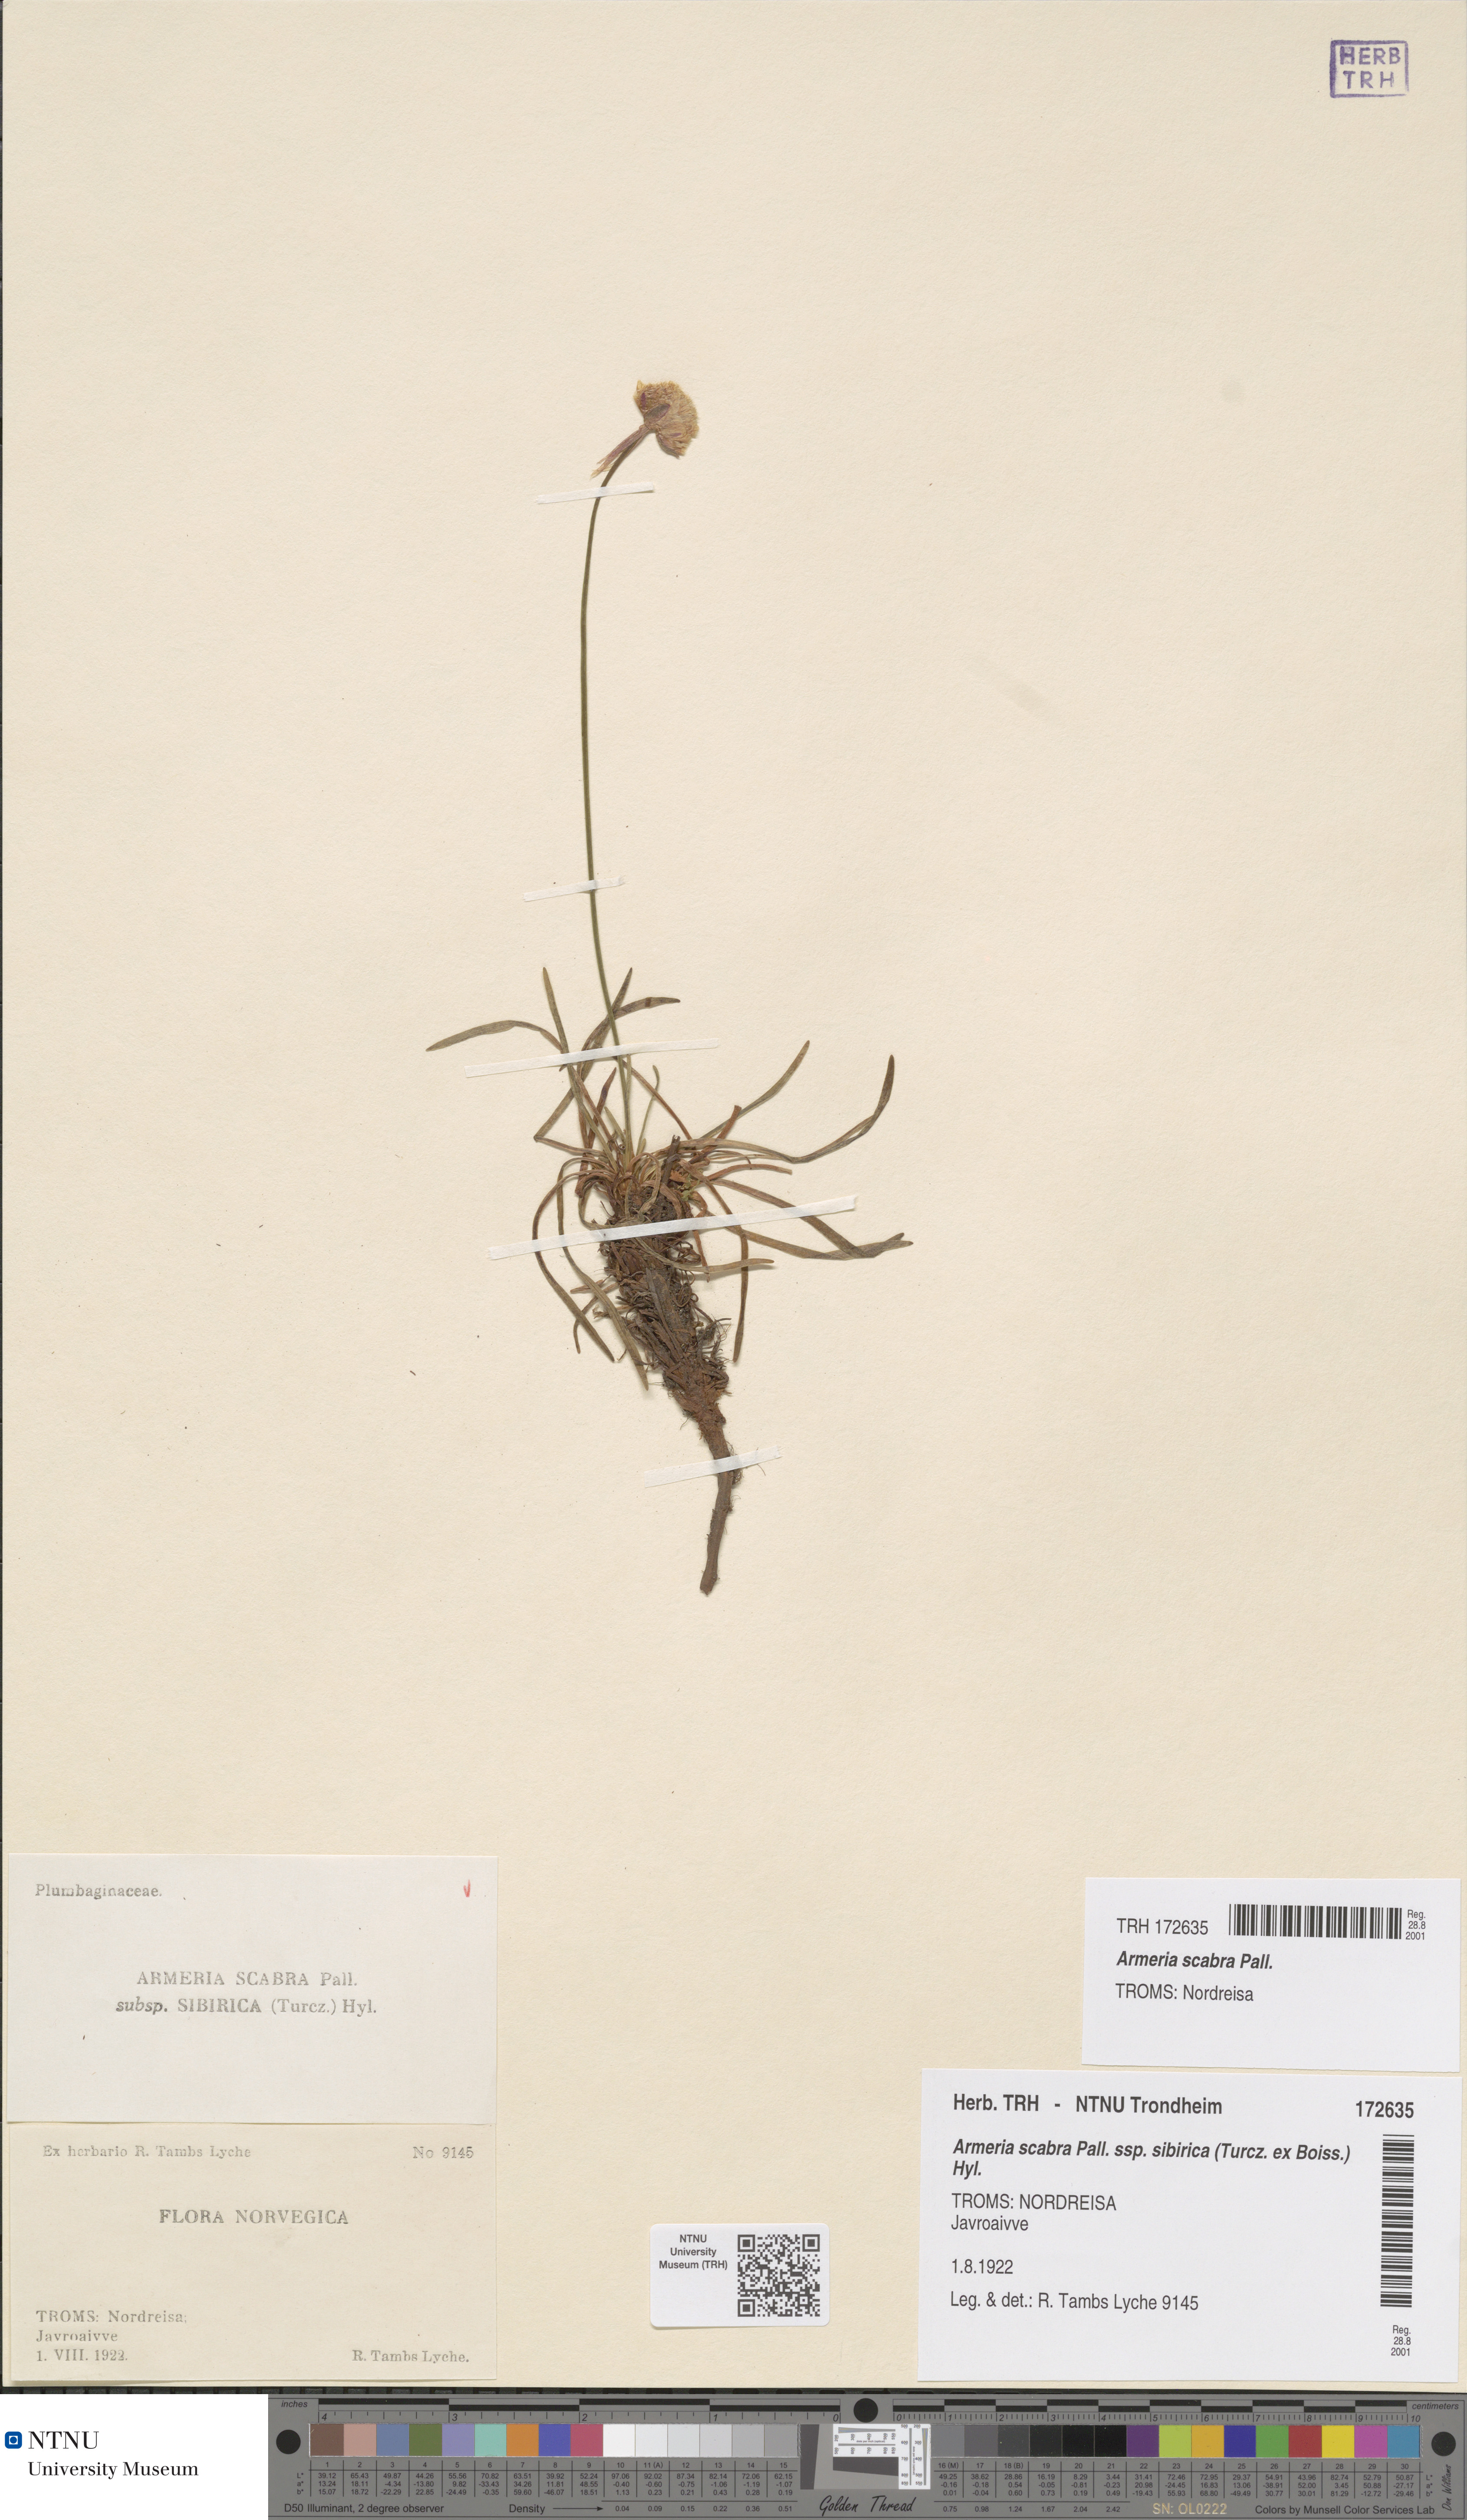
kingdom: Plantae
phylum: Tracheophyta
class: Magnoliopsida
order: Caryophyllales
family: Plumbaginaceae
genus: Armeria
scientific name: Armeria maritima
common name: Thrift
